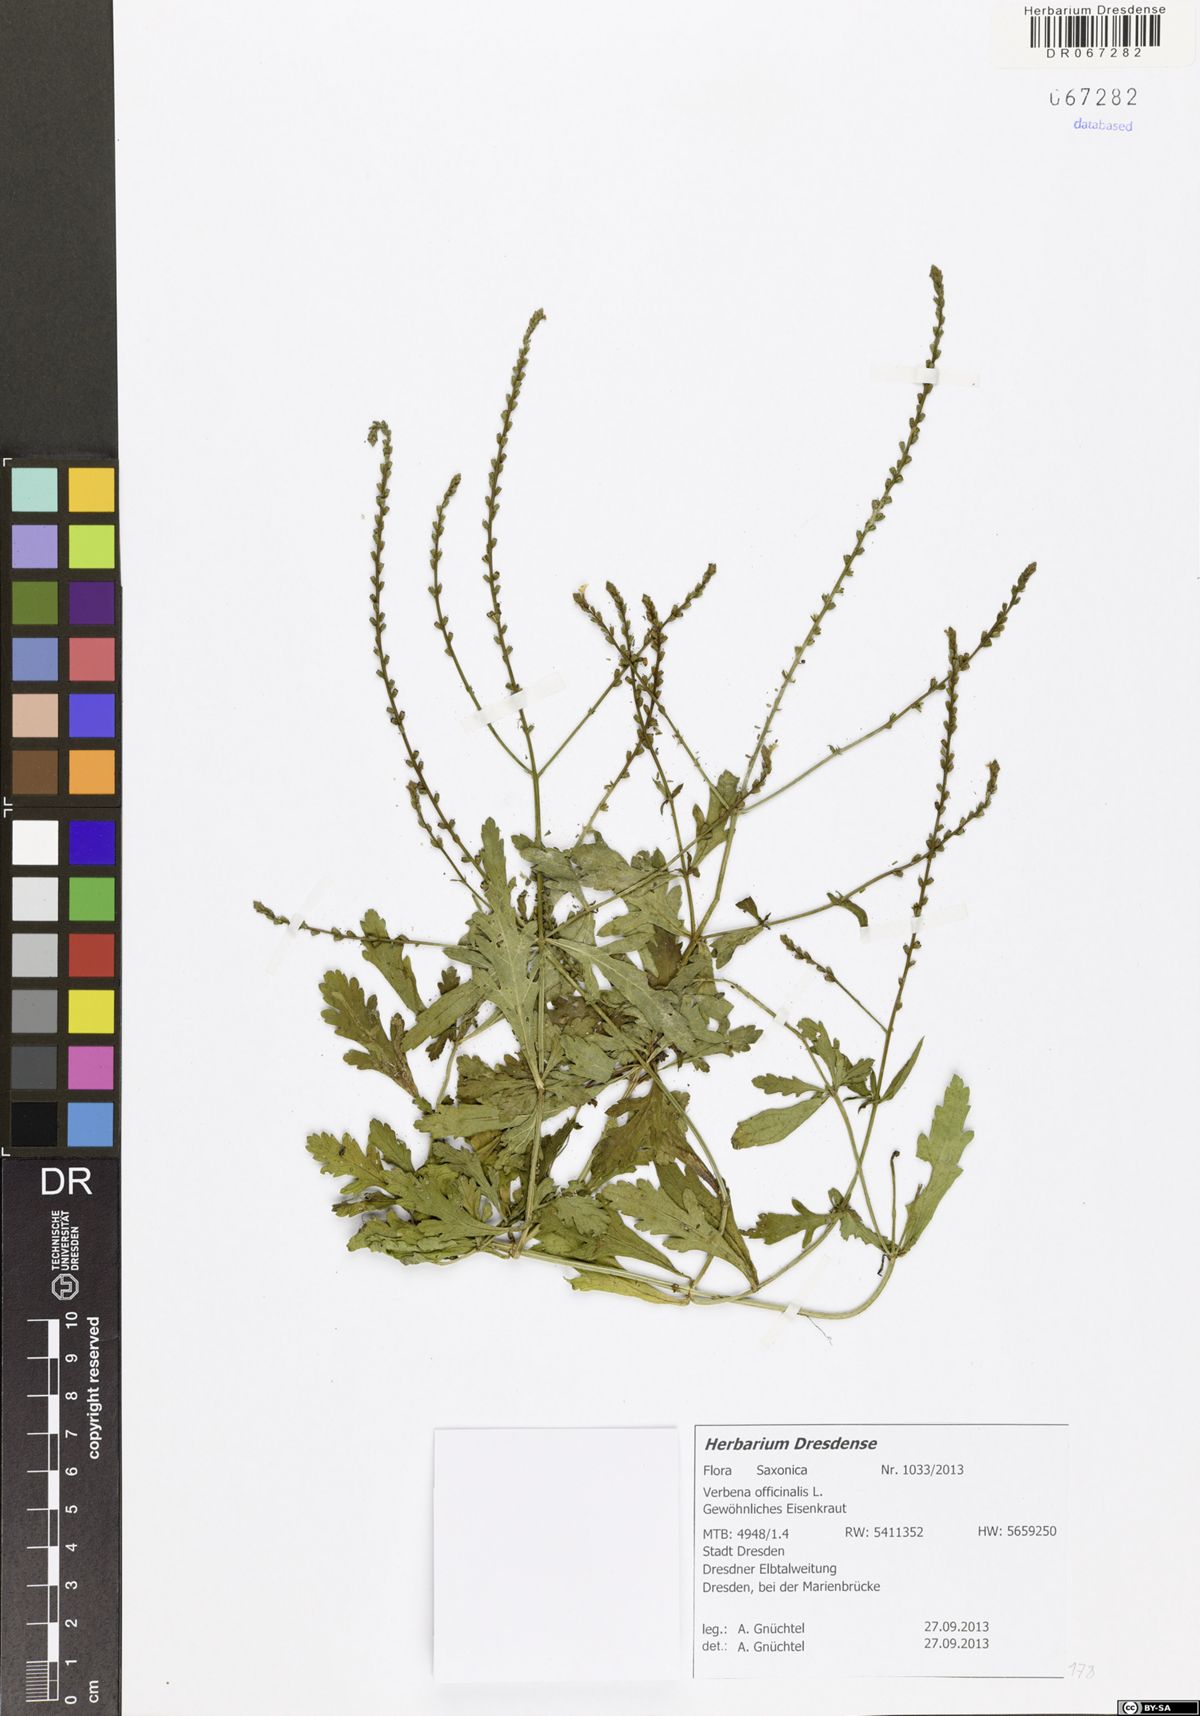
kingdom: Plantae
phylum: Tracheophyta
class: Magnoliopsida
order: Lamiales
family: Verbenaceae
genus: Verbena
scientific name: Verbena officinalis
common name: Vervain
